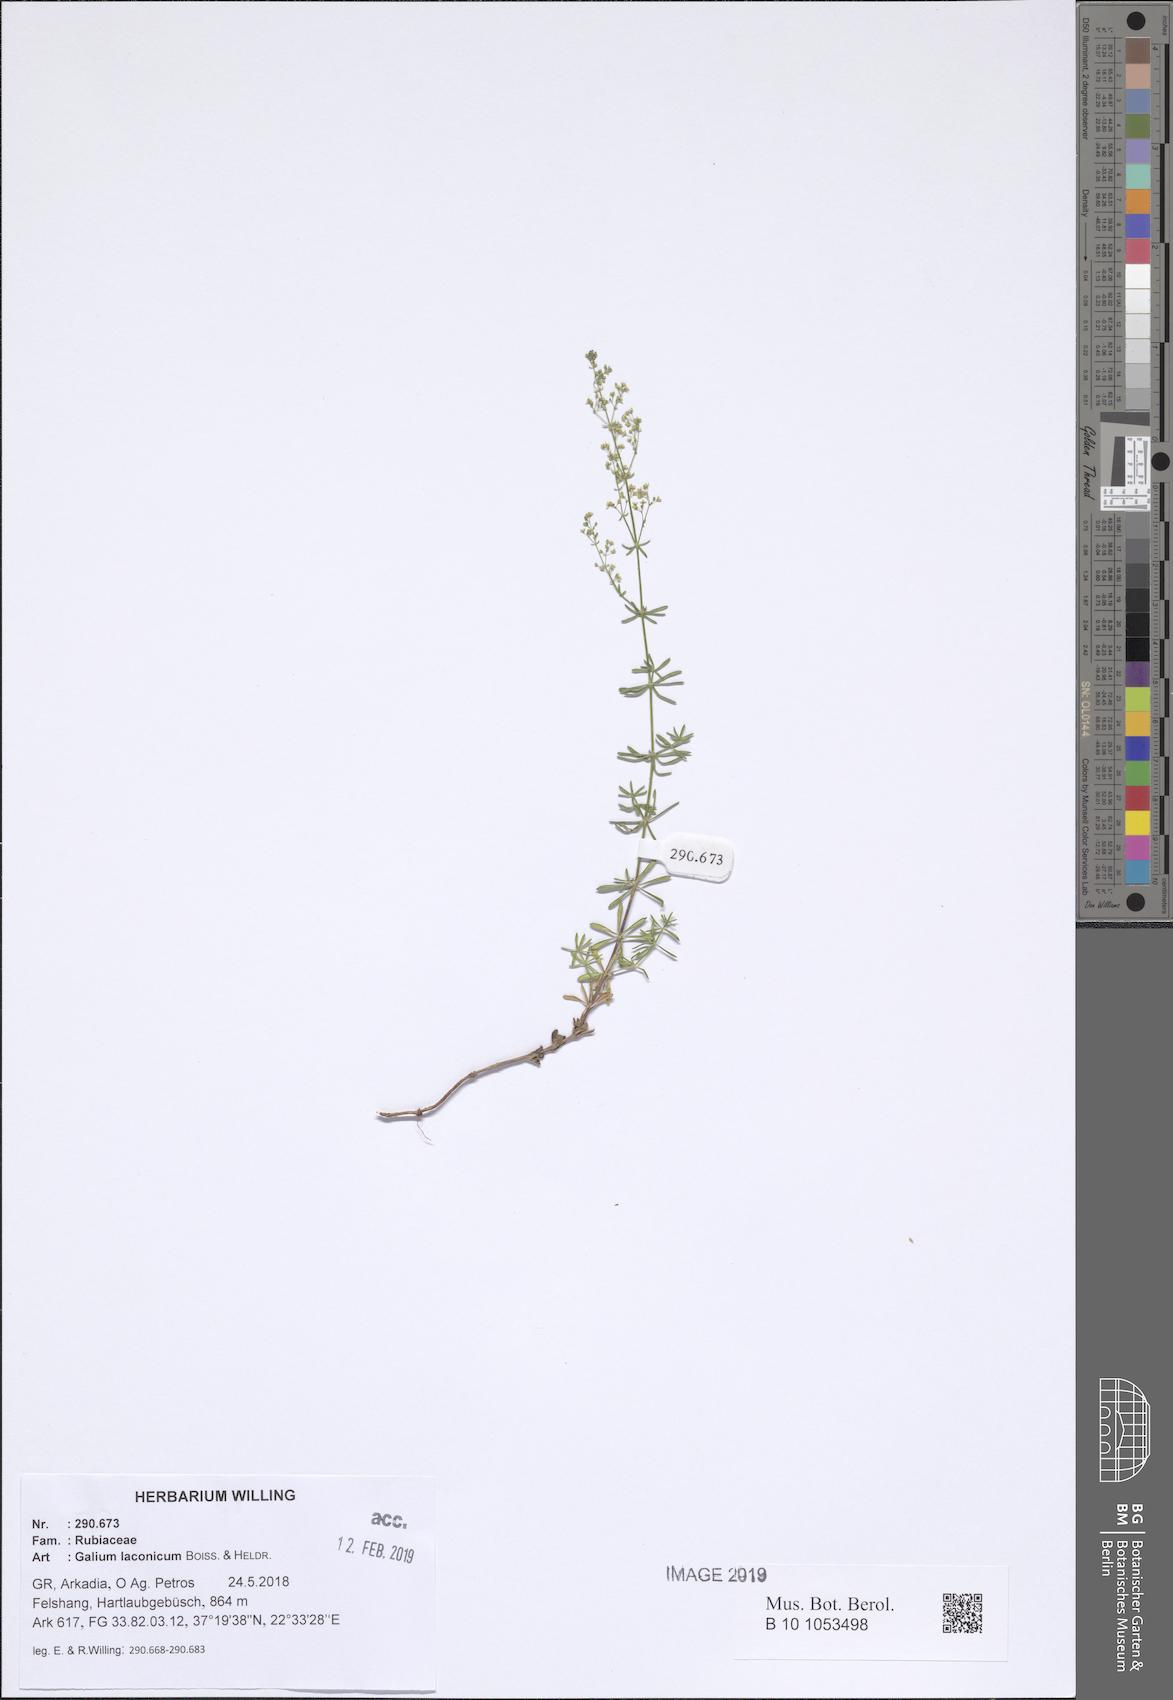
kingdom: Plantae
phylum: Tracheophyta
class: Magnoliopsida
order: Gentianales
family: Rubiaceae
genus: Galium
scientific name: Galium laconicum
